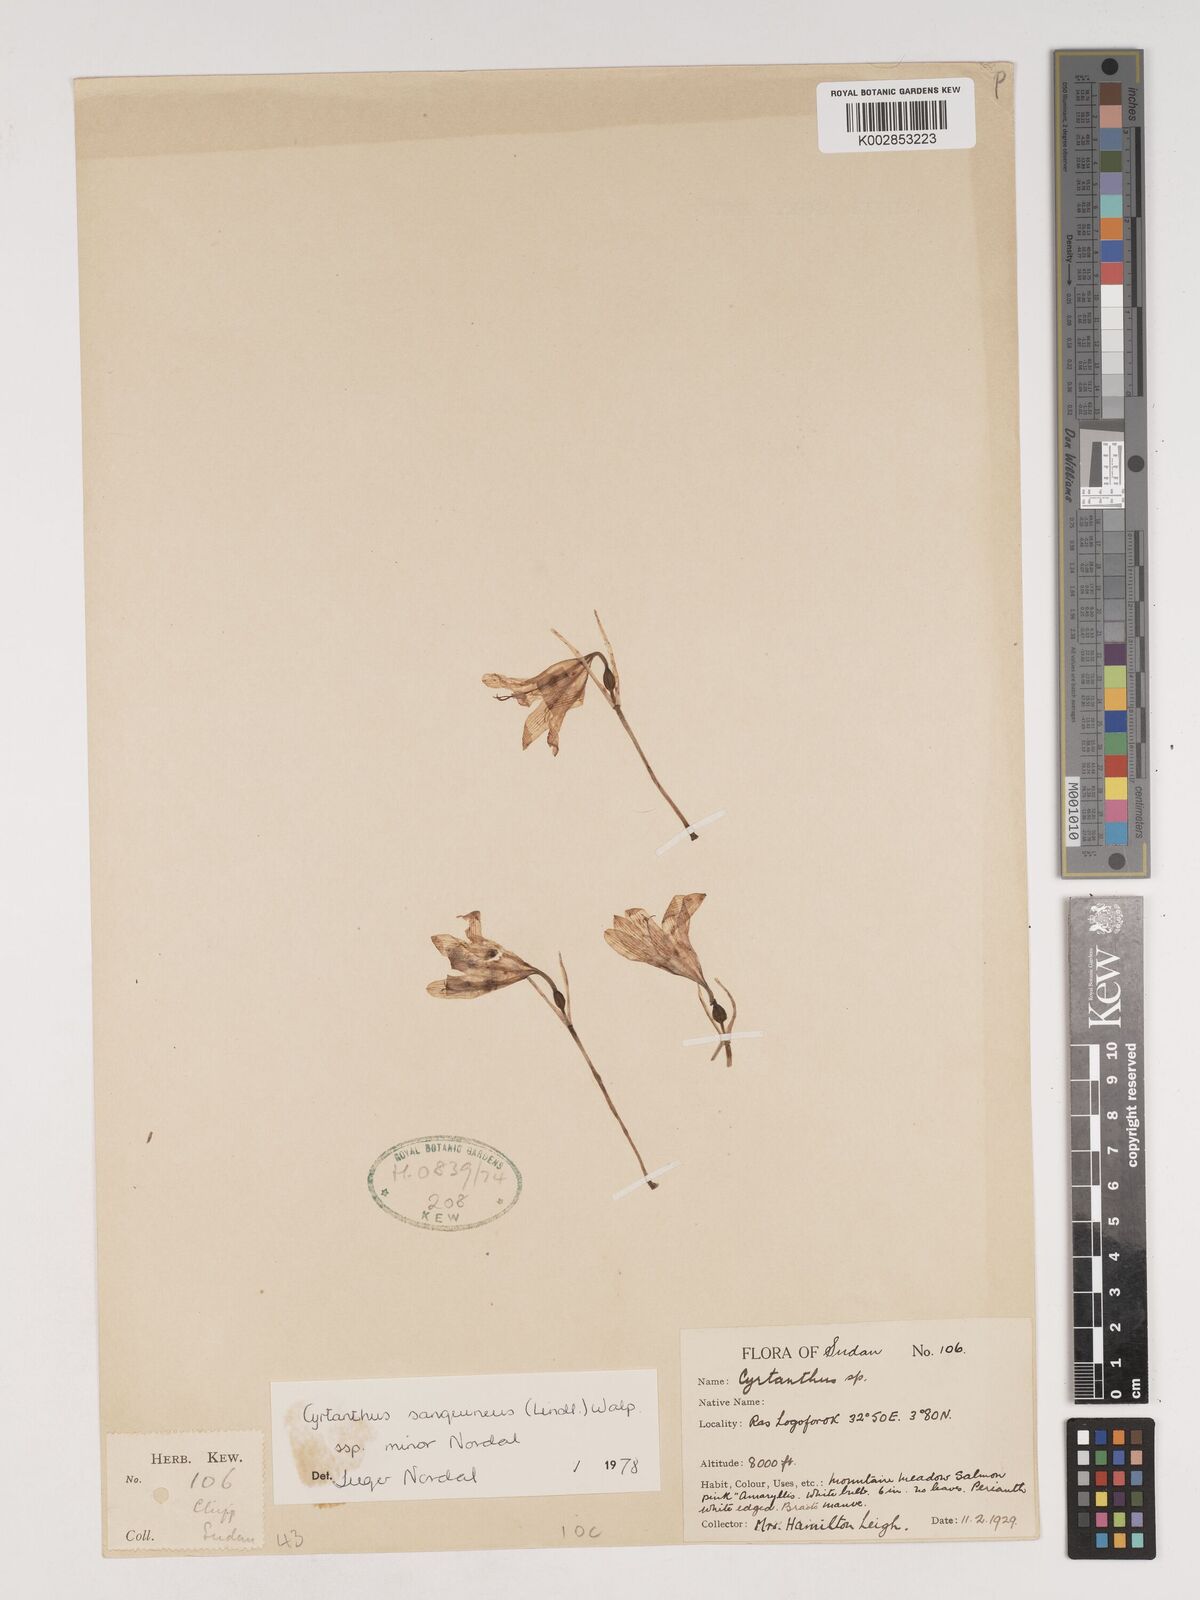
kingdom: Plantae
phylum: Tracheophyta
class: Liliopsida
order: Asparagales
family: Amaryllidaceae
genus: Cyrtanthus
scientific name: Cyrtanthus sanguineus
